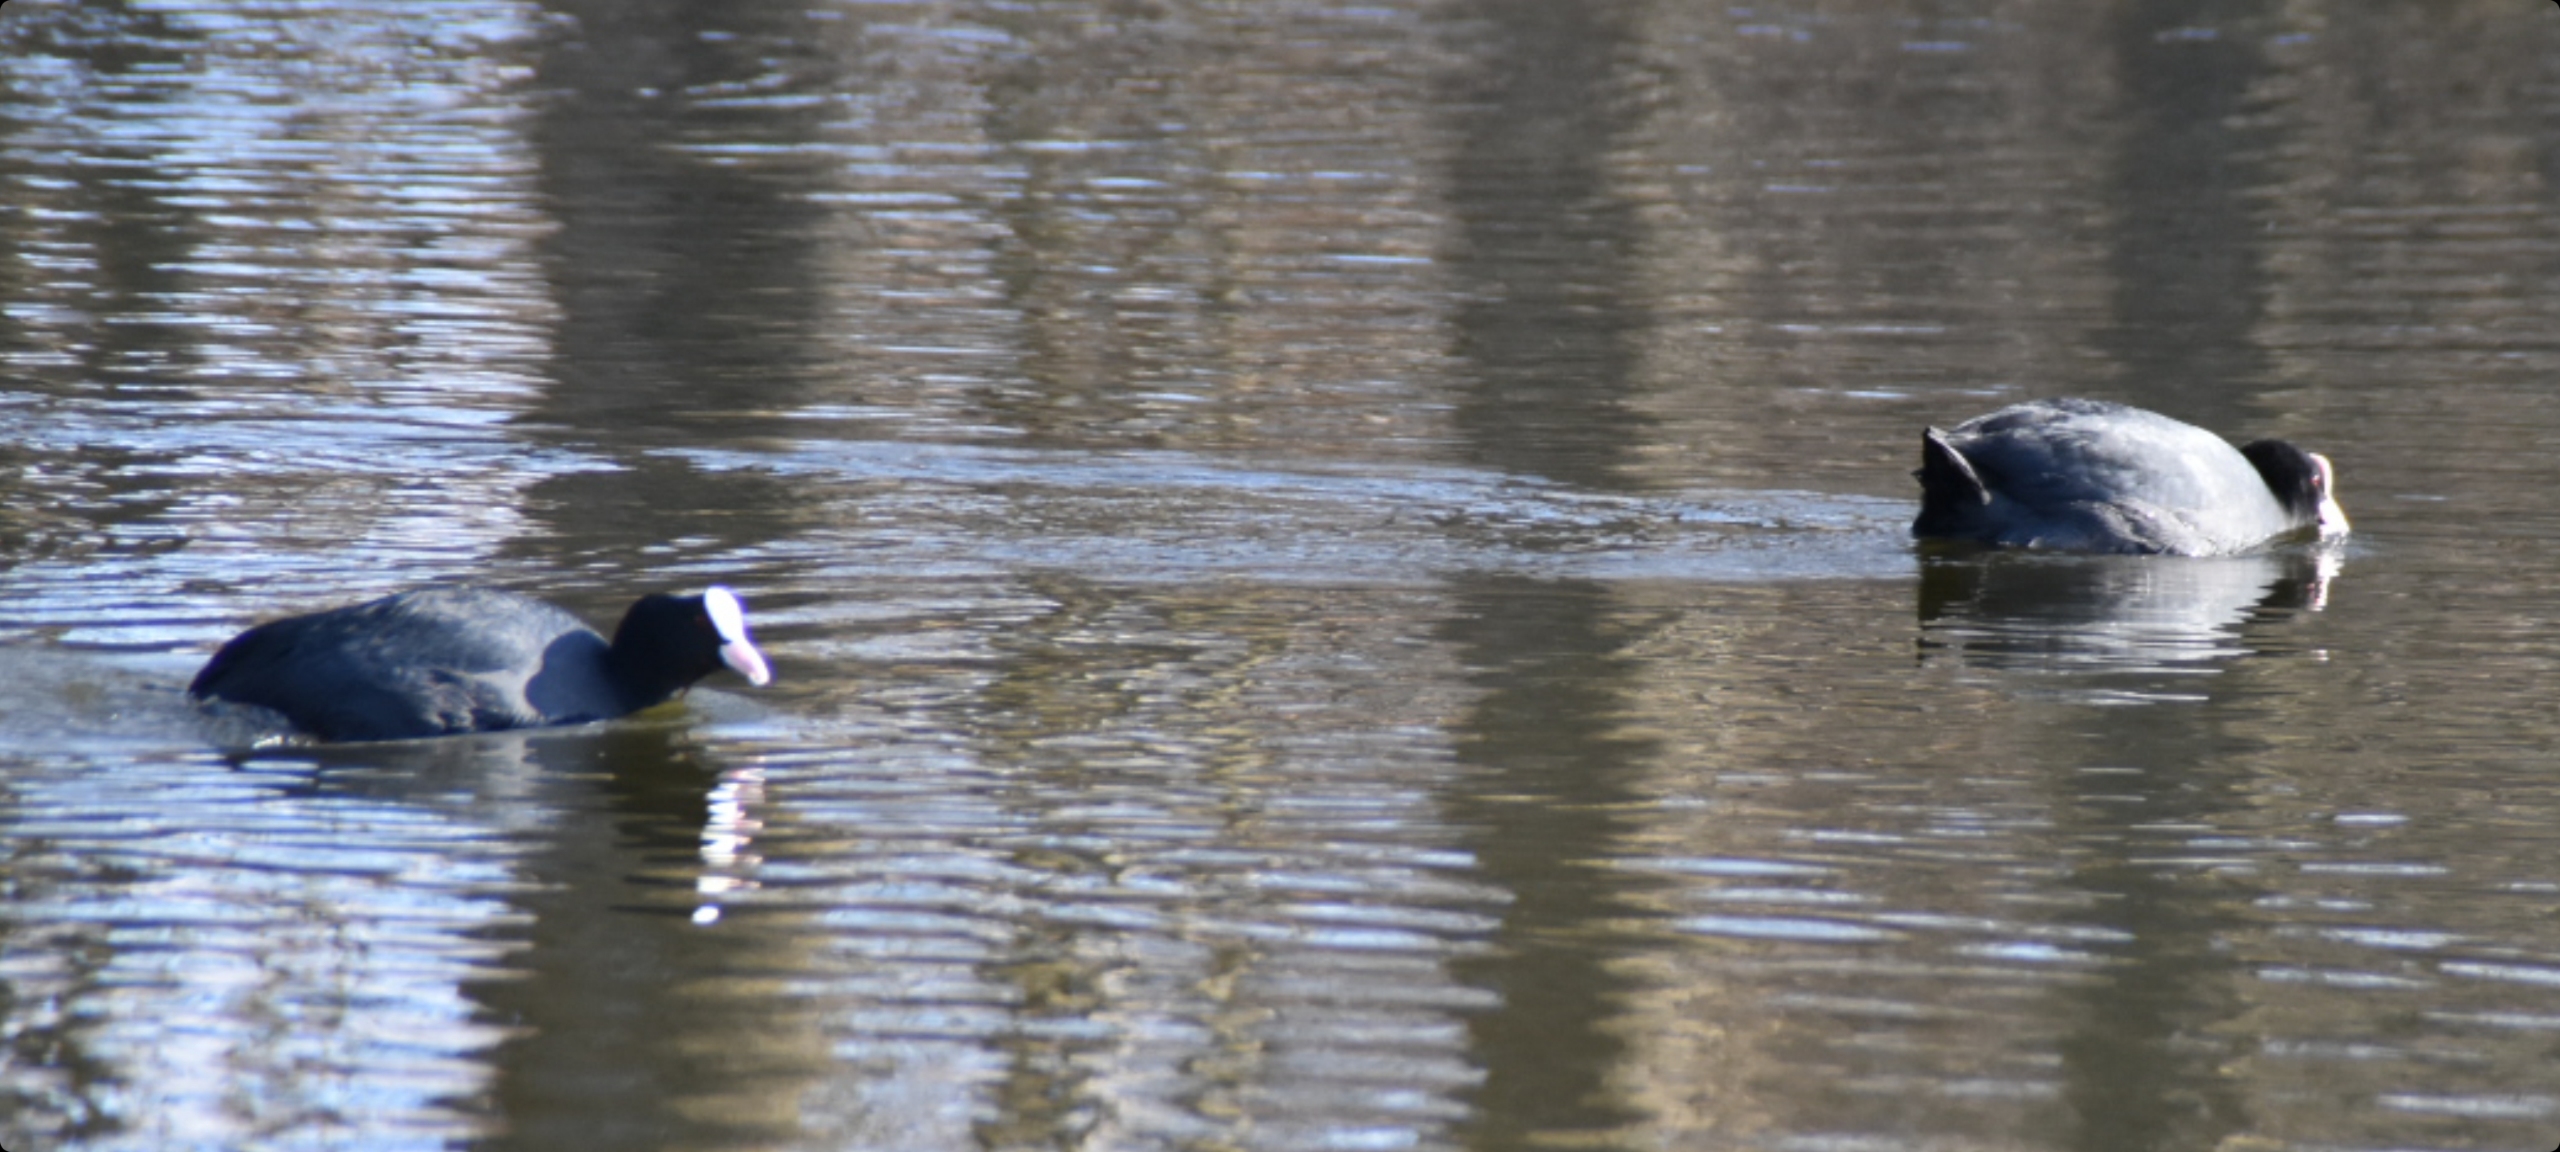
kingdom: Animalia
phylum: Chordata
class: Aves
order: Gruiformes
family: Rallidae
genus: Fulica
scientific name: Fulica atra
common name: Blishøne
